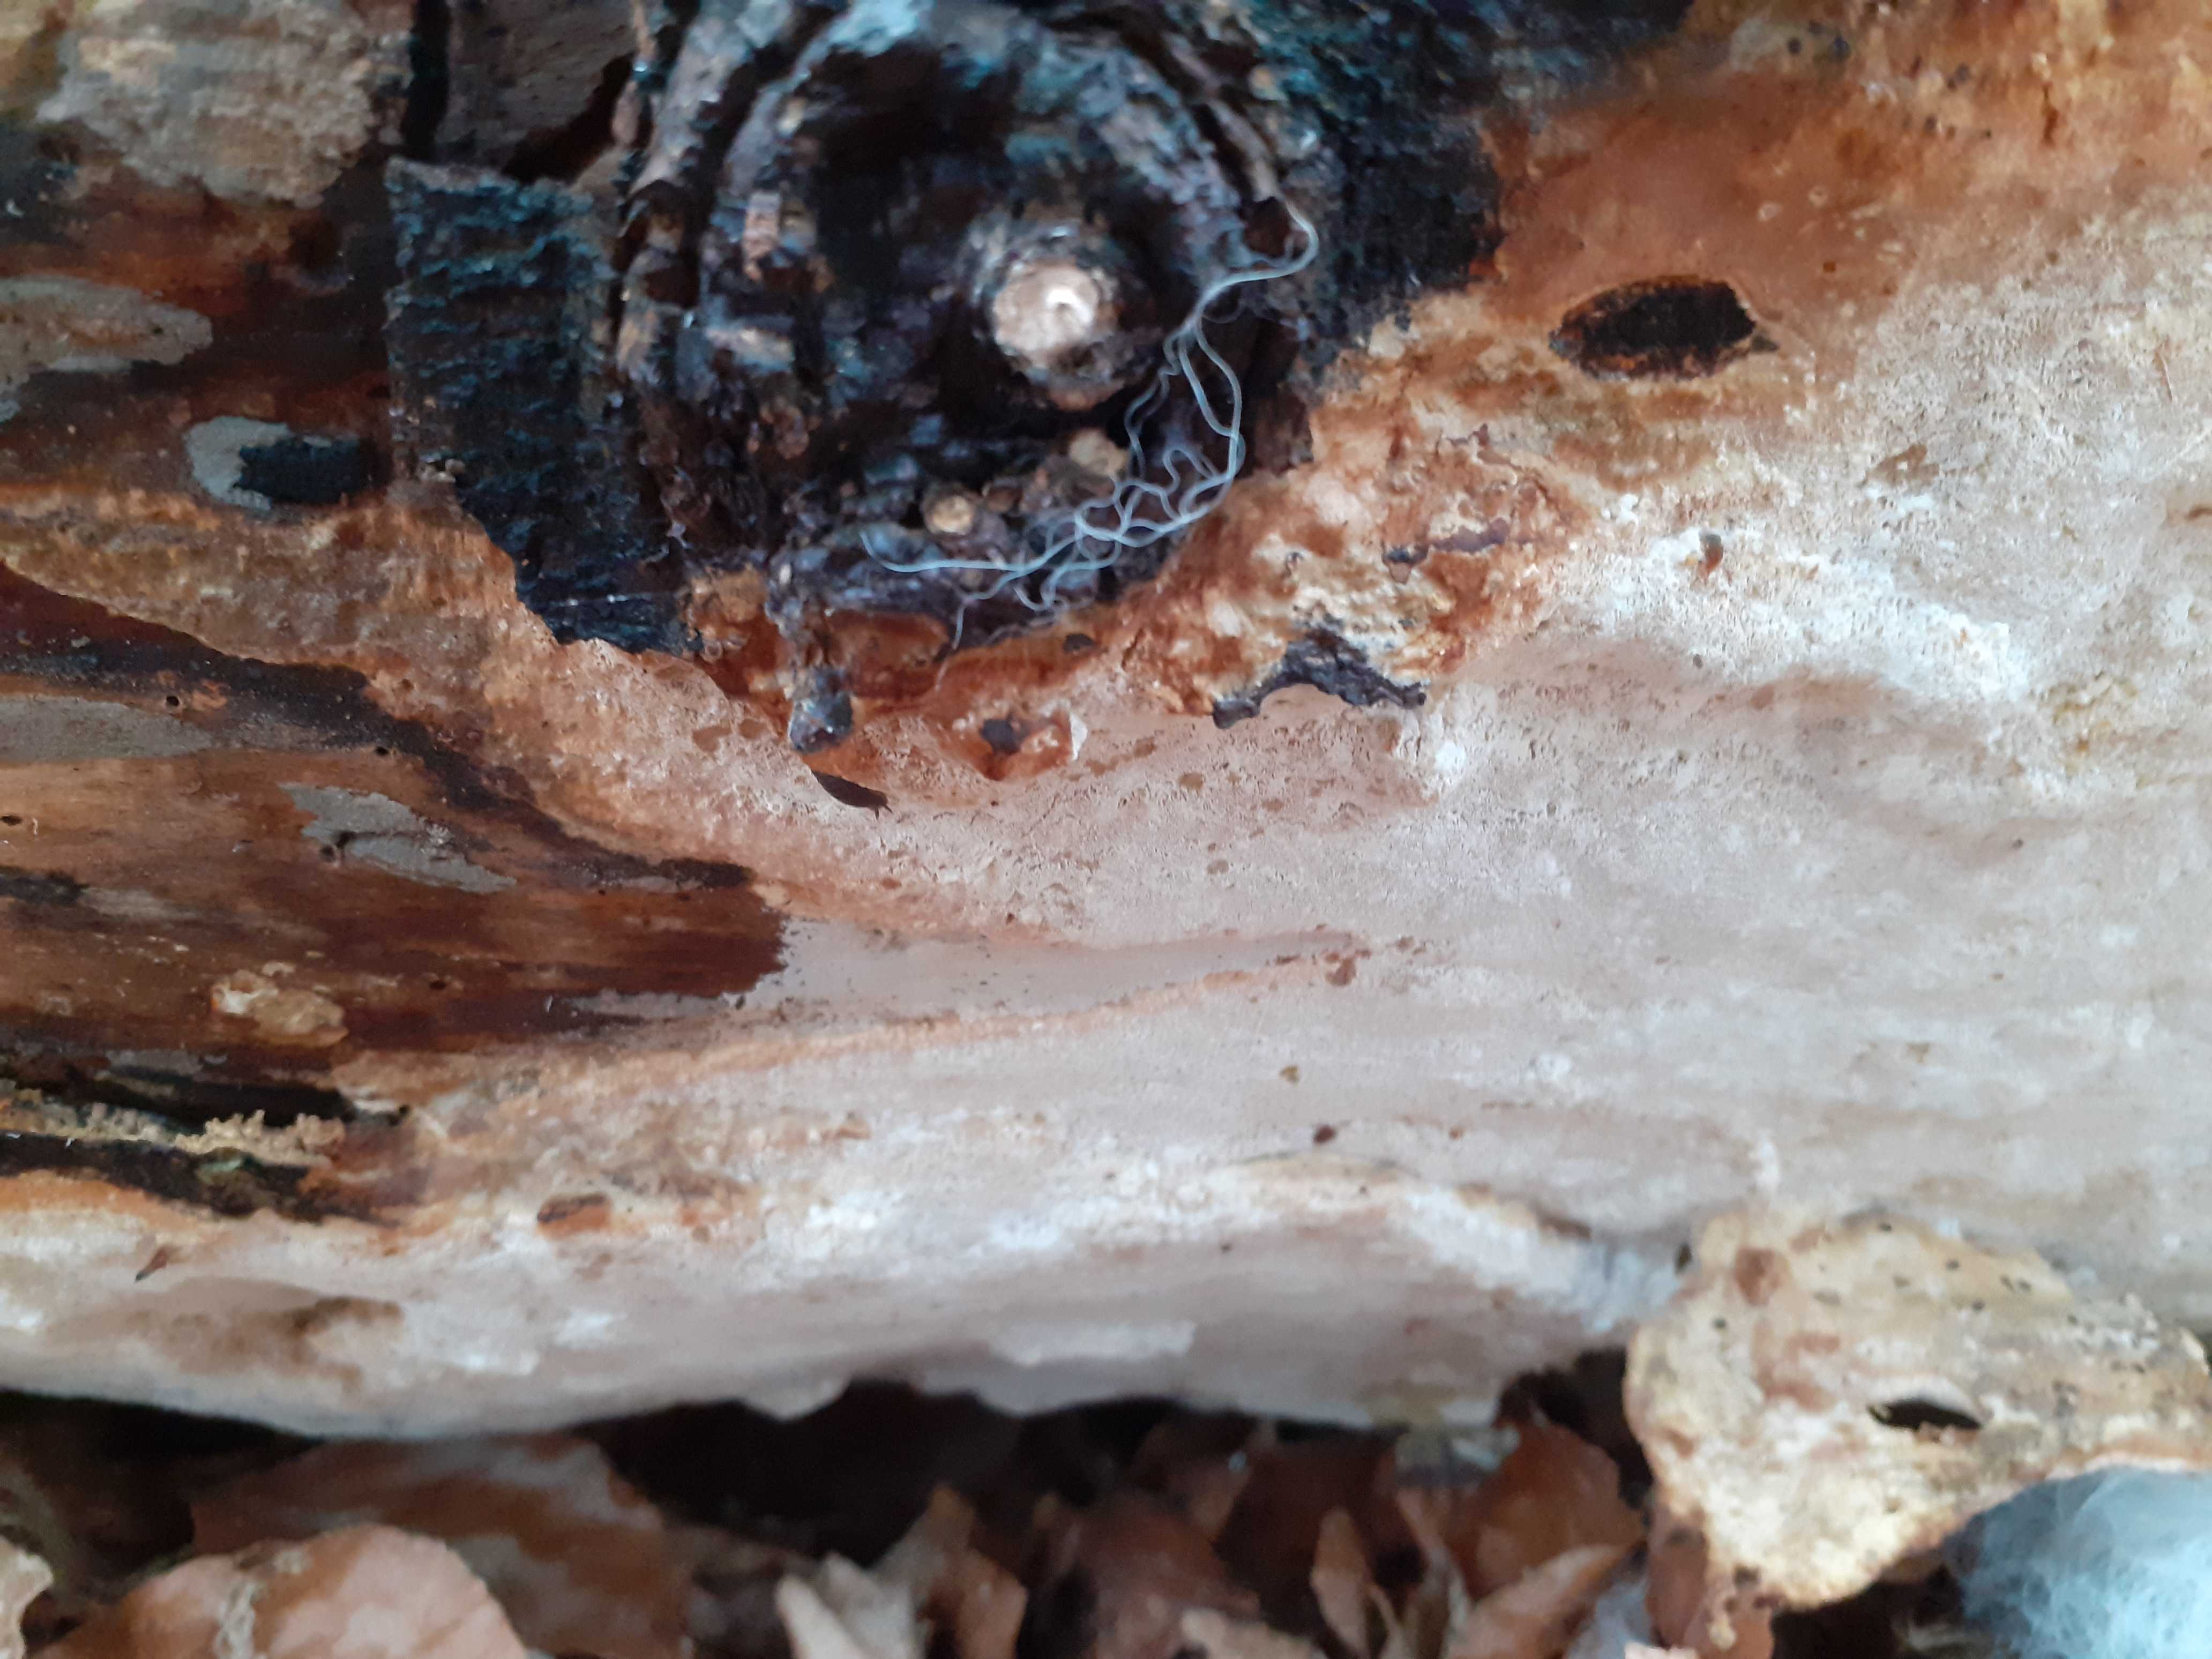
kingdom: Fungi
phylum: Basidiomycota
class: Agaricomycetes
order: Polyporales
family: Irpicaceae
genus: Gloeoporus
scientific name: Gloeoporus pannocinctus
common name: grøngul foldporesvamp
